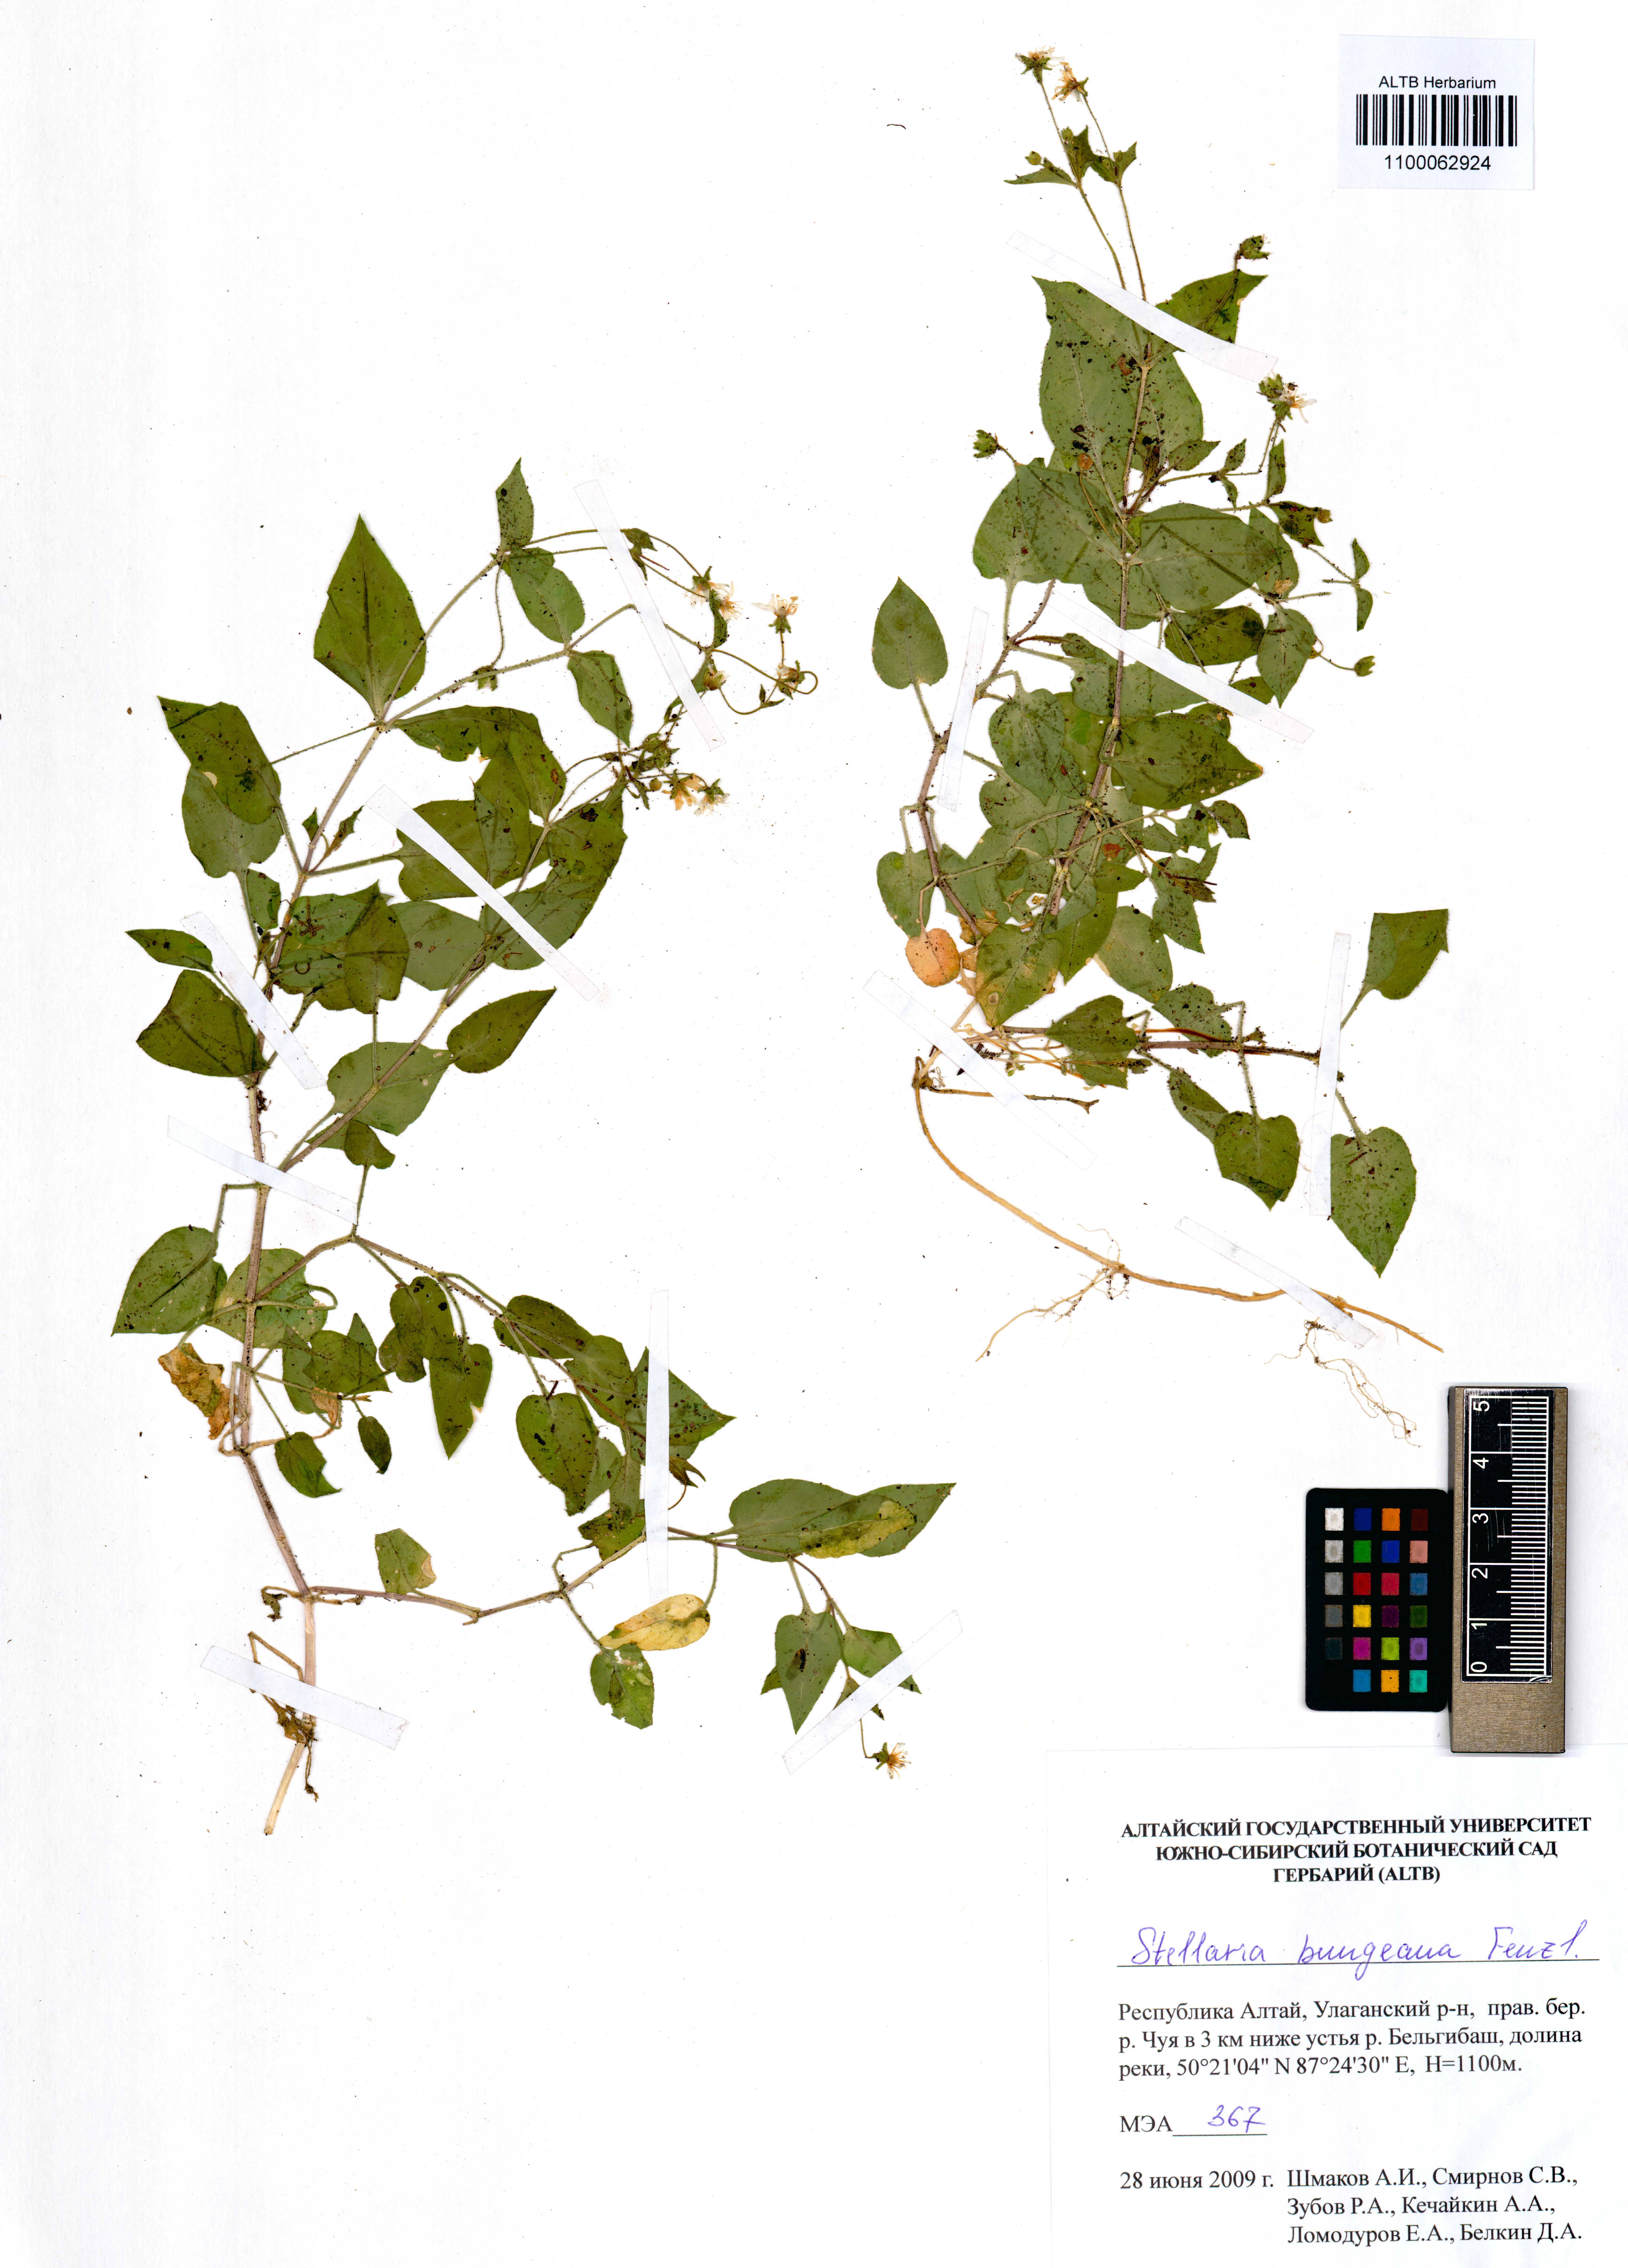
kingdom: Plantae
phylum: Tracheophyta
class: Magnoliopsida
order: Caryophyllales
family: Caryophyllaceae
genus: Stellaria
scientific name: Stellaria bungeana
